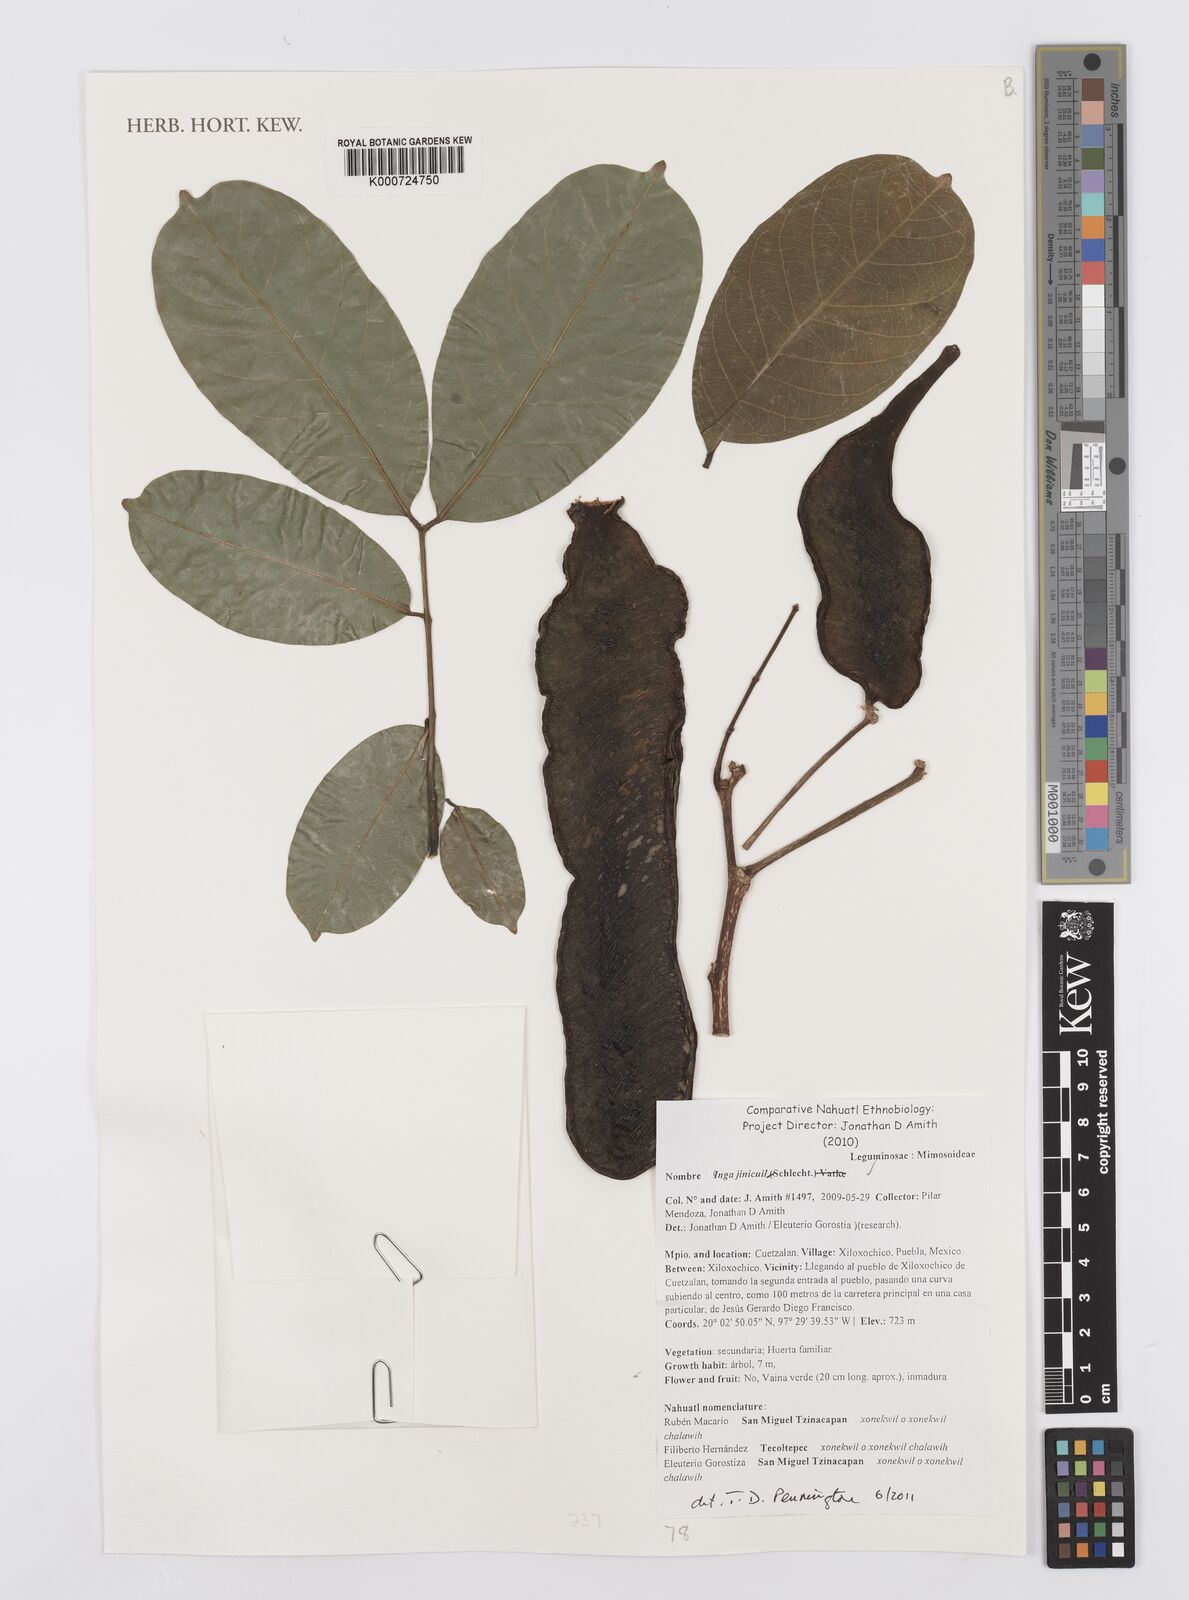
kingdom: Plantae
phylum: Tracheophyta
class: Magnoliopsida
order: Fabales
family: Fabaceae
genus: Inga
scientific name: Inga inicuil
